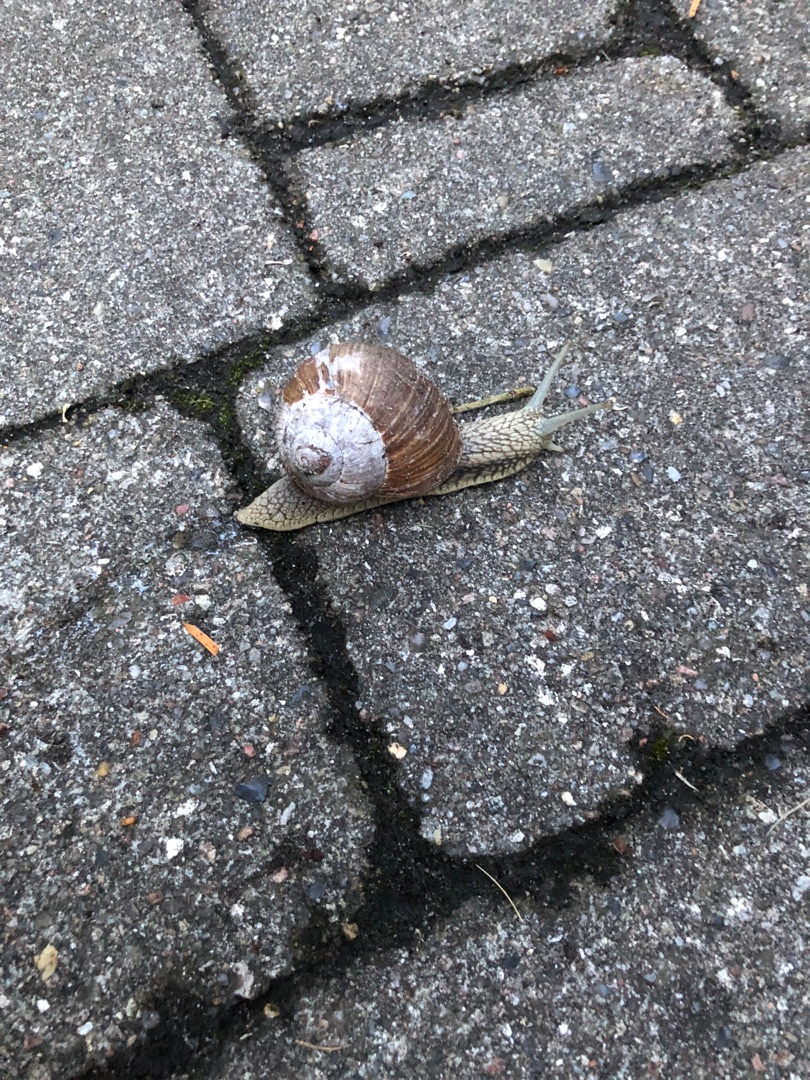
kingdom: Animalia
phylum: Mollusca
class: Gastropoda
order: Stylommatophora
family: Helicidae
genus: Helix
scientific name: Helix pomatia
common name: Vinbjergsnegl
